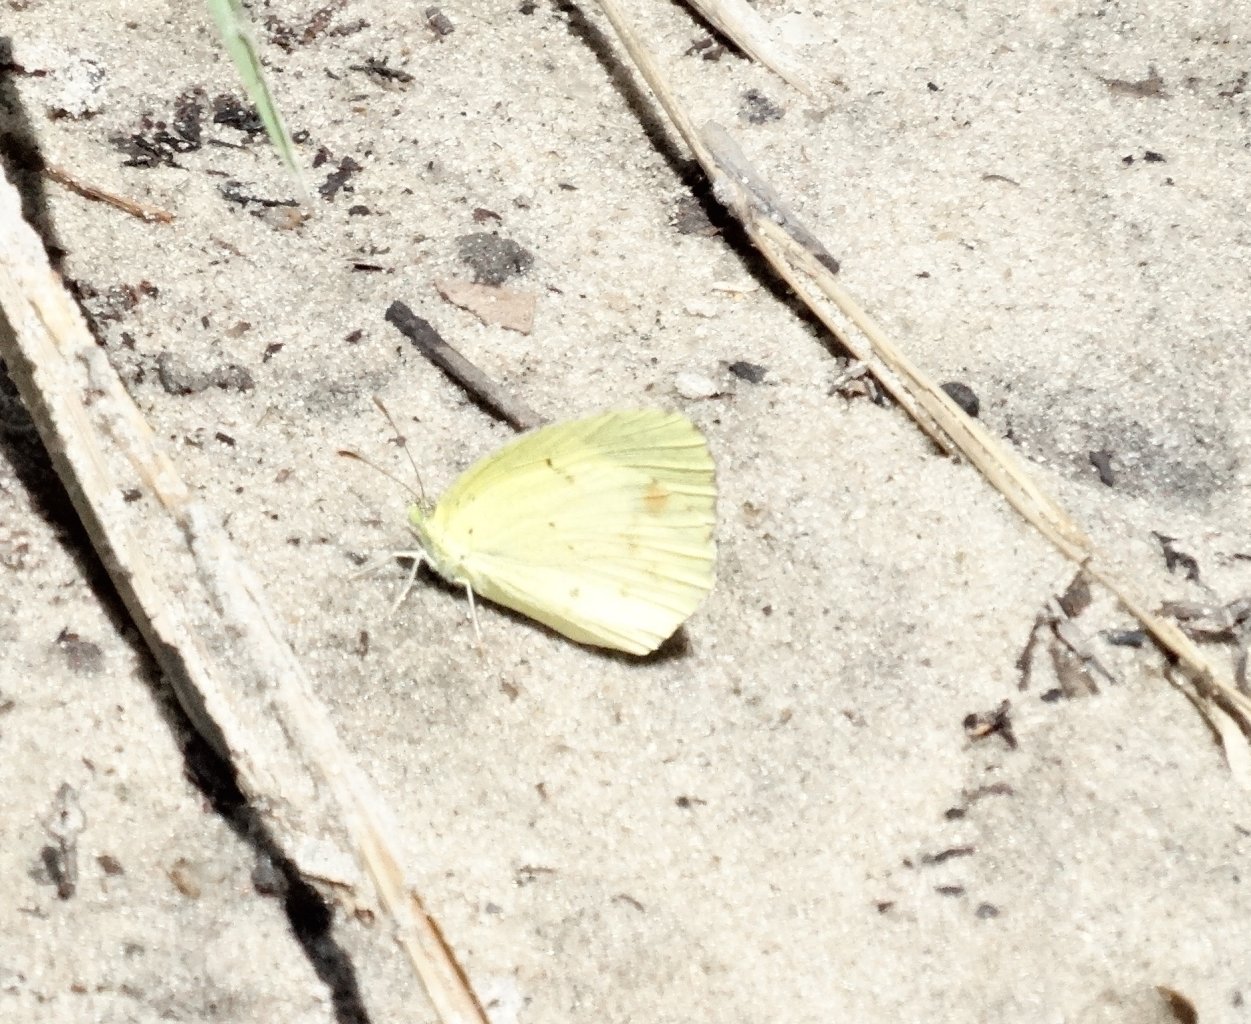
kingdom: Animalia
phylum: Arthropoda
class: Insecta
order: Lepidoptera
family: Pieridae
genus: Pyrisitia
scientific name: Pyrisitia lisa
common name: Little Yellow
